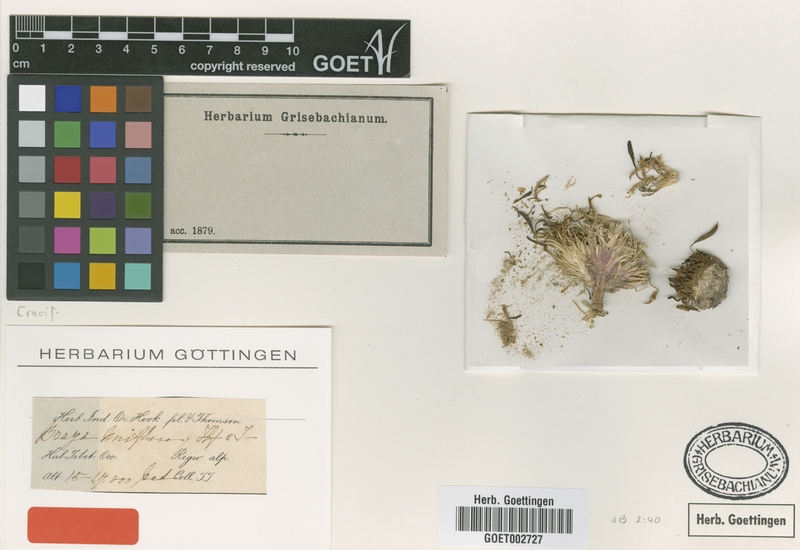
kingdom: Plantae
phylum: Tracheophyta
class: Magnoliopsida
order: Brassicales
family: Brassicaceae
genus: Pycnoplinthus
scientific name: Pycnoplinthus uniflora
